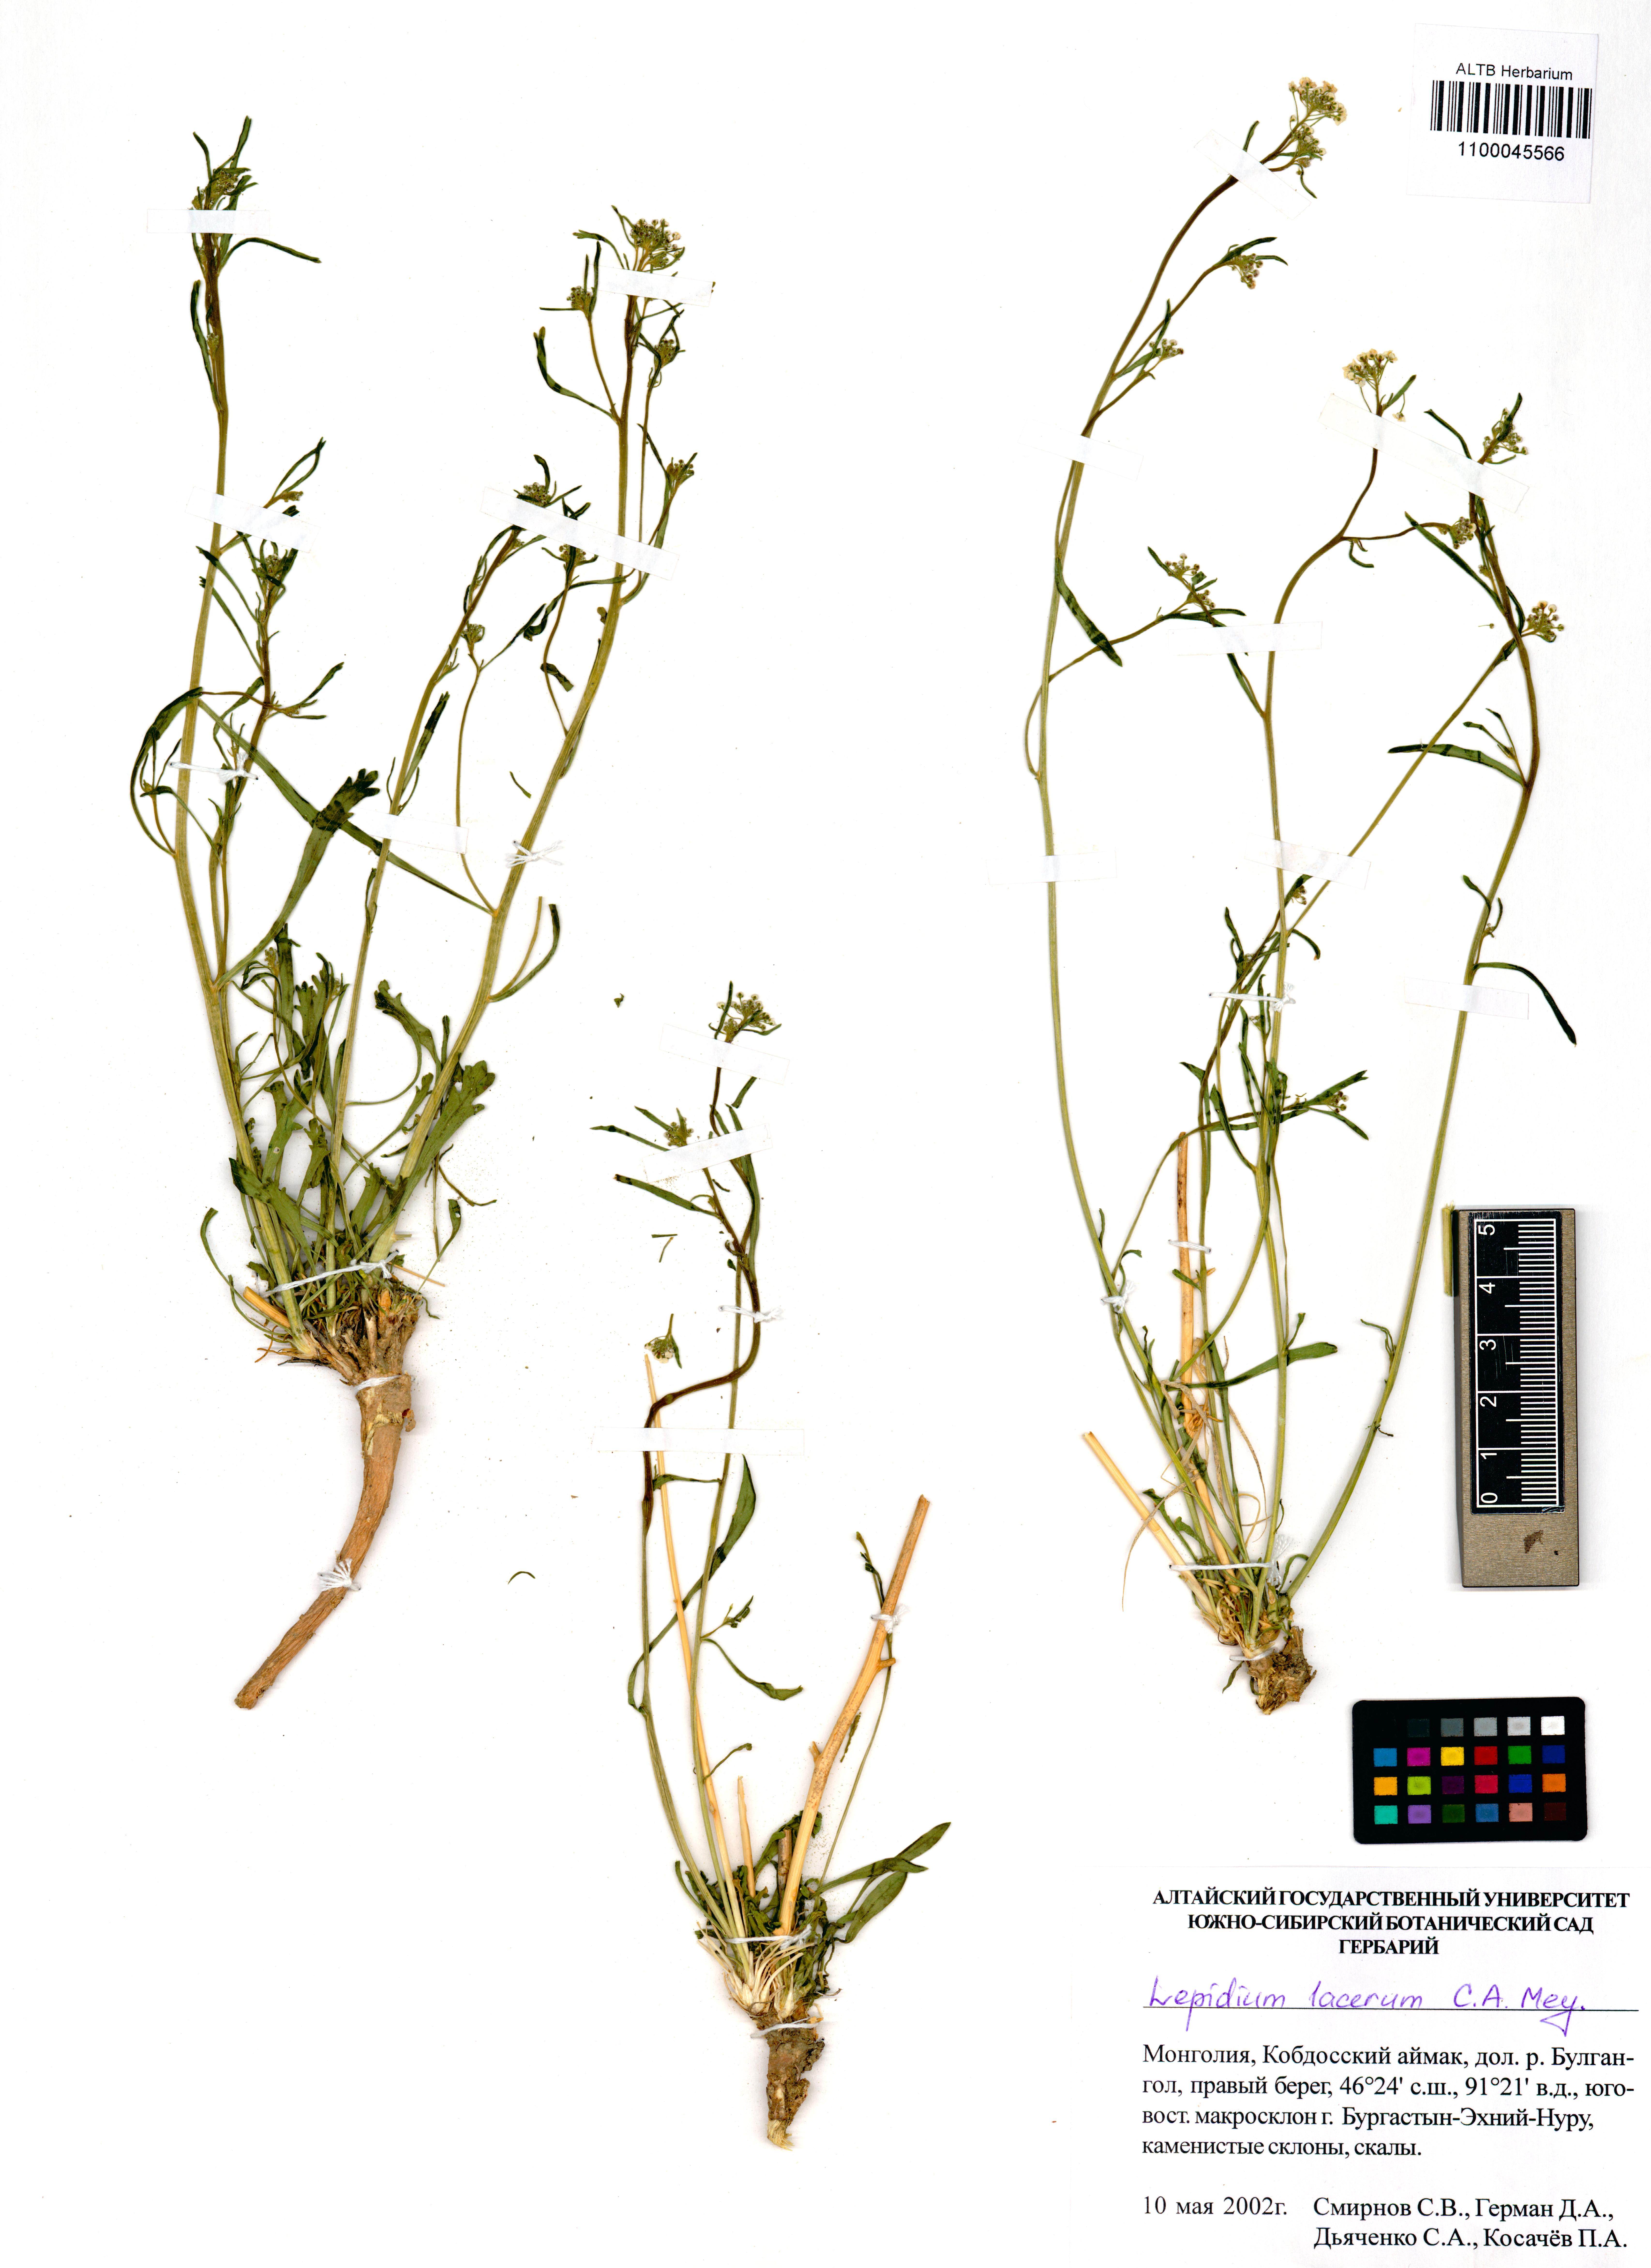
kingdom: Plantae
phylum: Tracheophyta
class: Magnoliopsida
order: Brassicales
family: Brassicaceae
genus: Lepidium
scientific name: Lepidium lacerum
